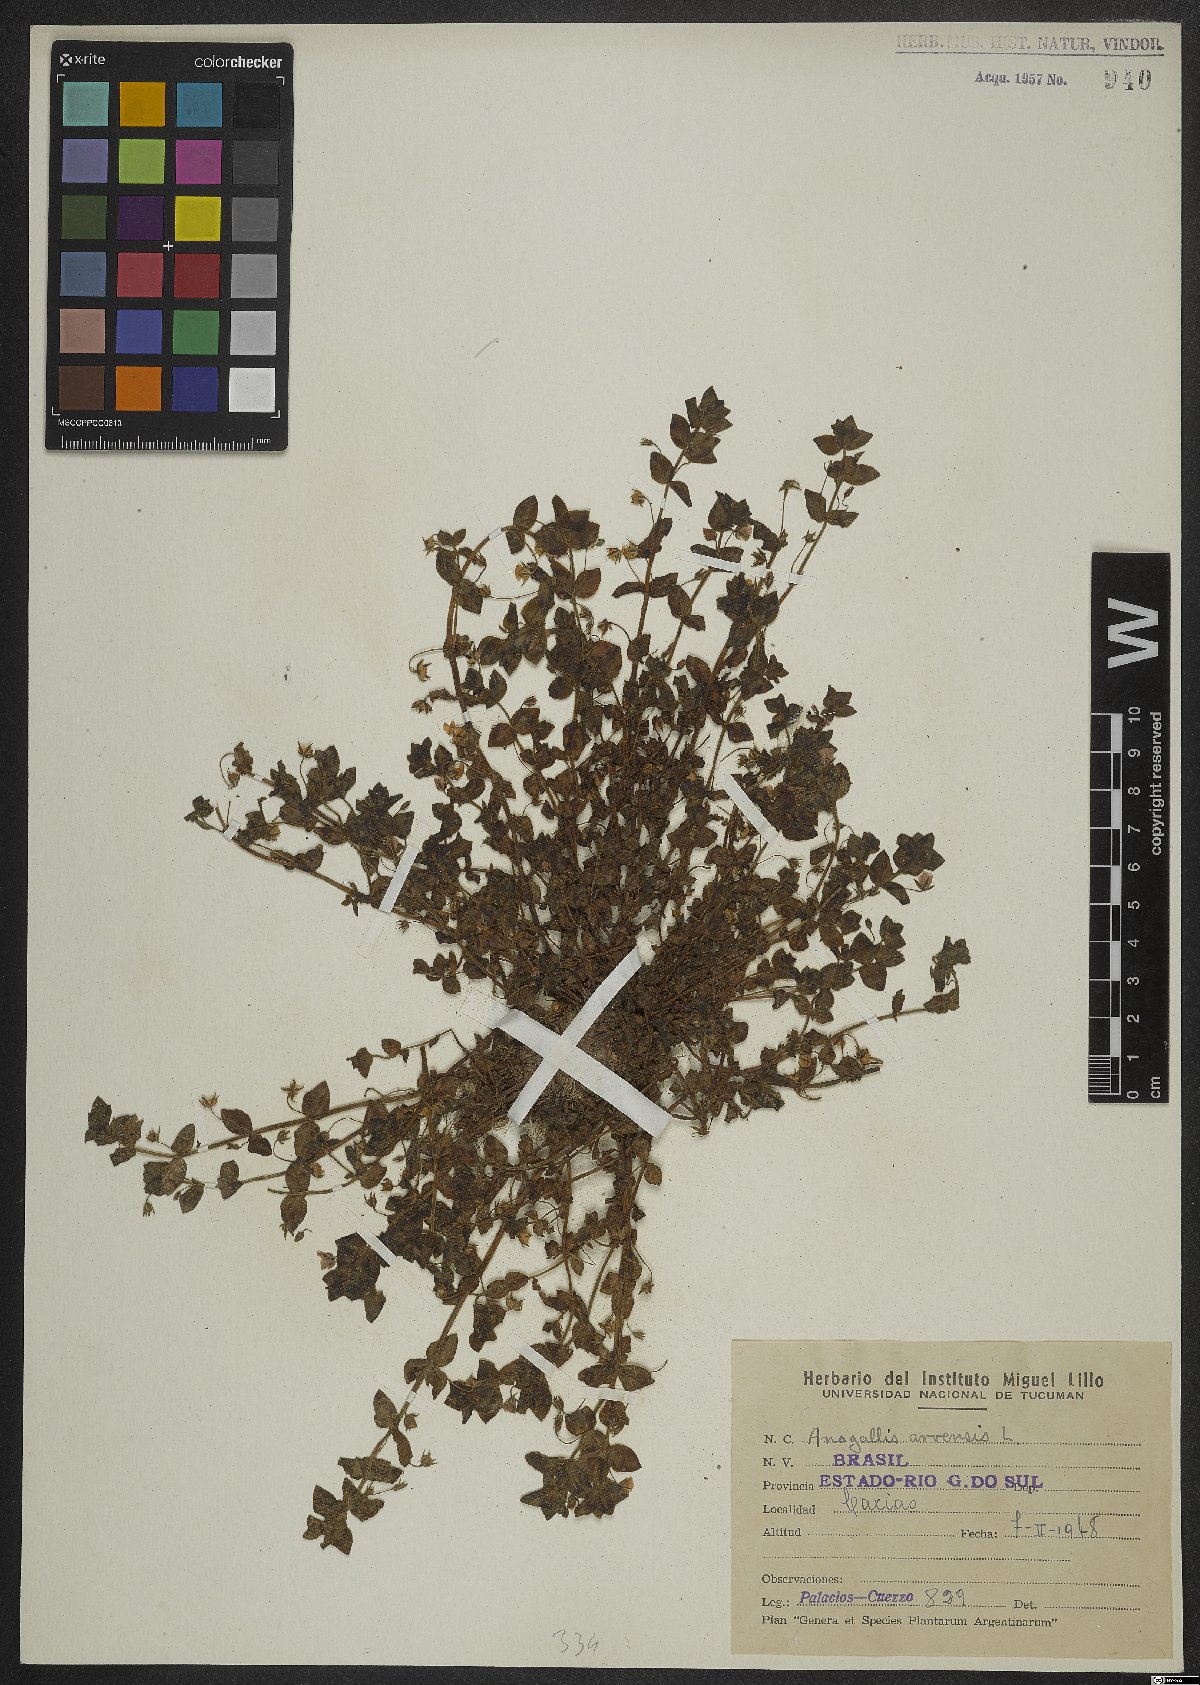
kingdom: Plantae
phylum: Tracheophyta
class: Magnoliopsida
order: Ericales
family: Primulaceae
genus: Lysimachia
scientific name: Lysimachia arvensis
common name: Scarlet pimpernel
